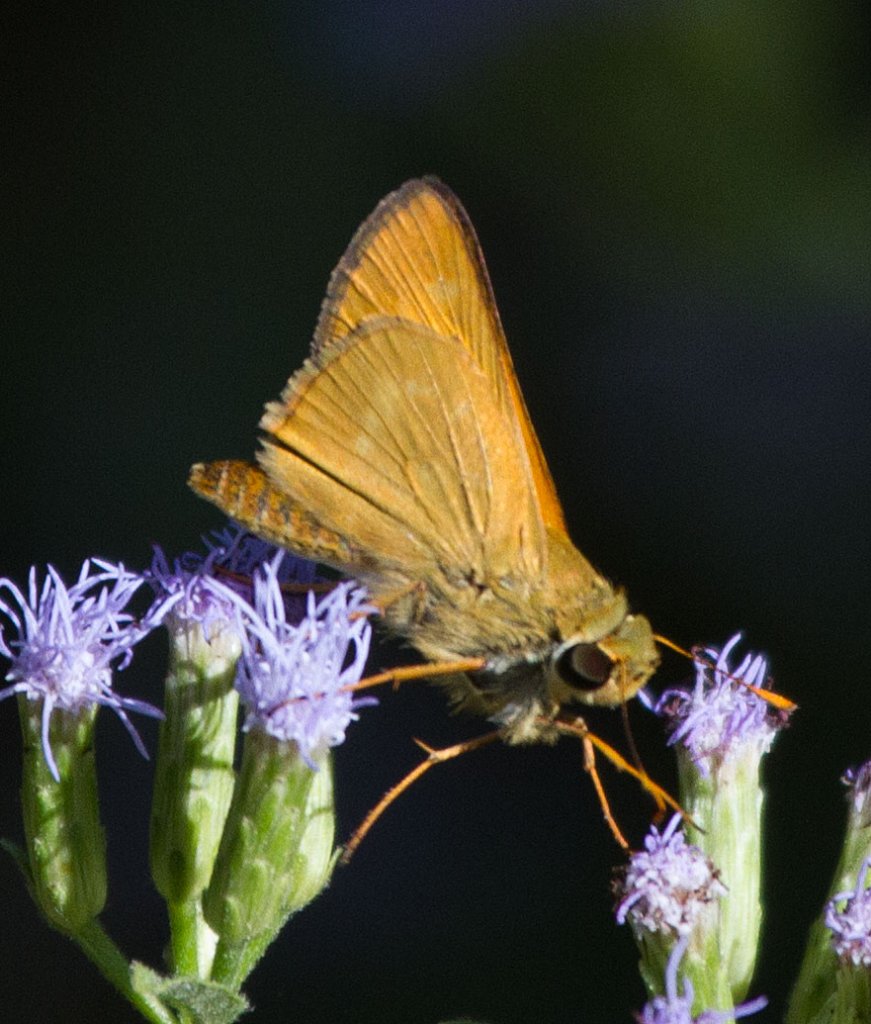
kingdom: Animalia
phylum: Arthropoda
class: Insecta
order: Lepidoptera
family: Hesperiidae
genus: Mellana
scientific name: Mellana eulogius
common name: Common Mellana
